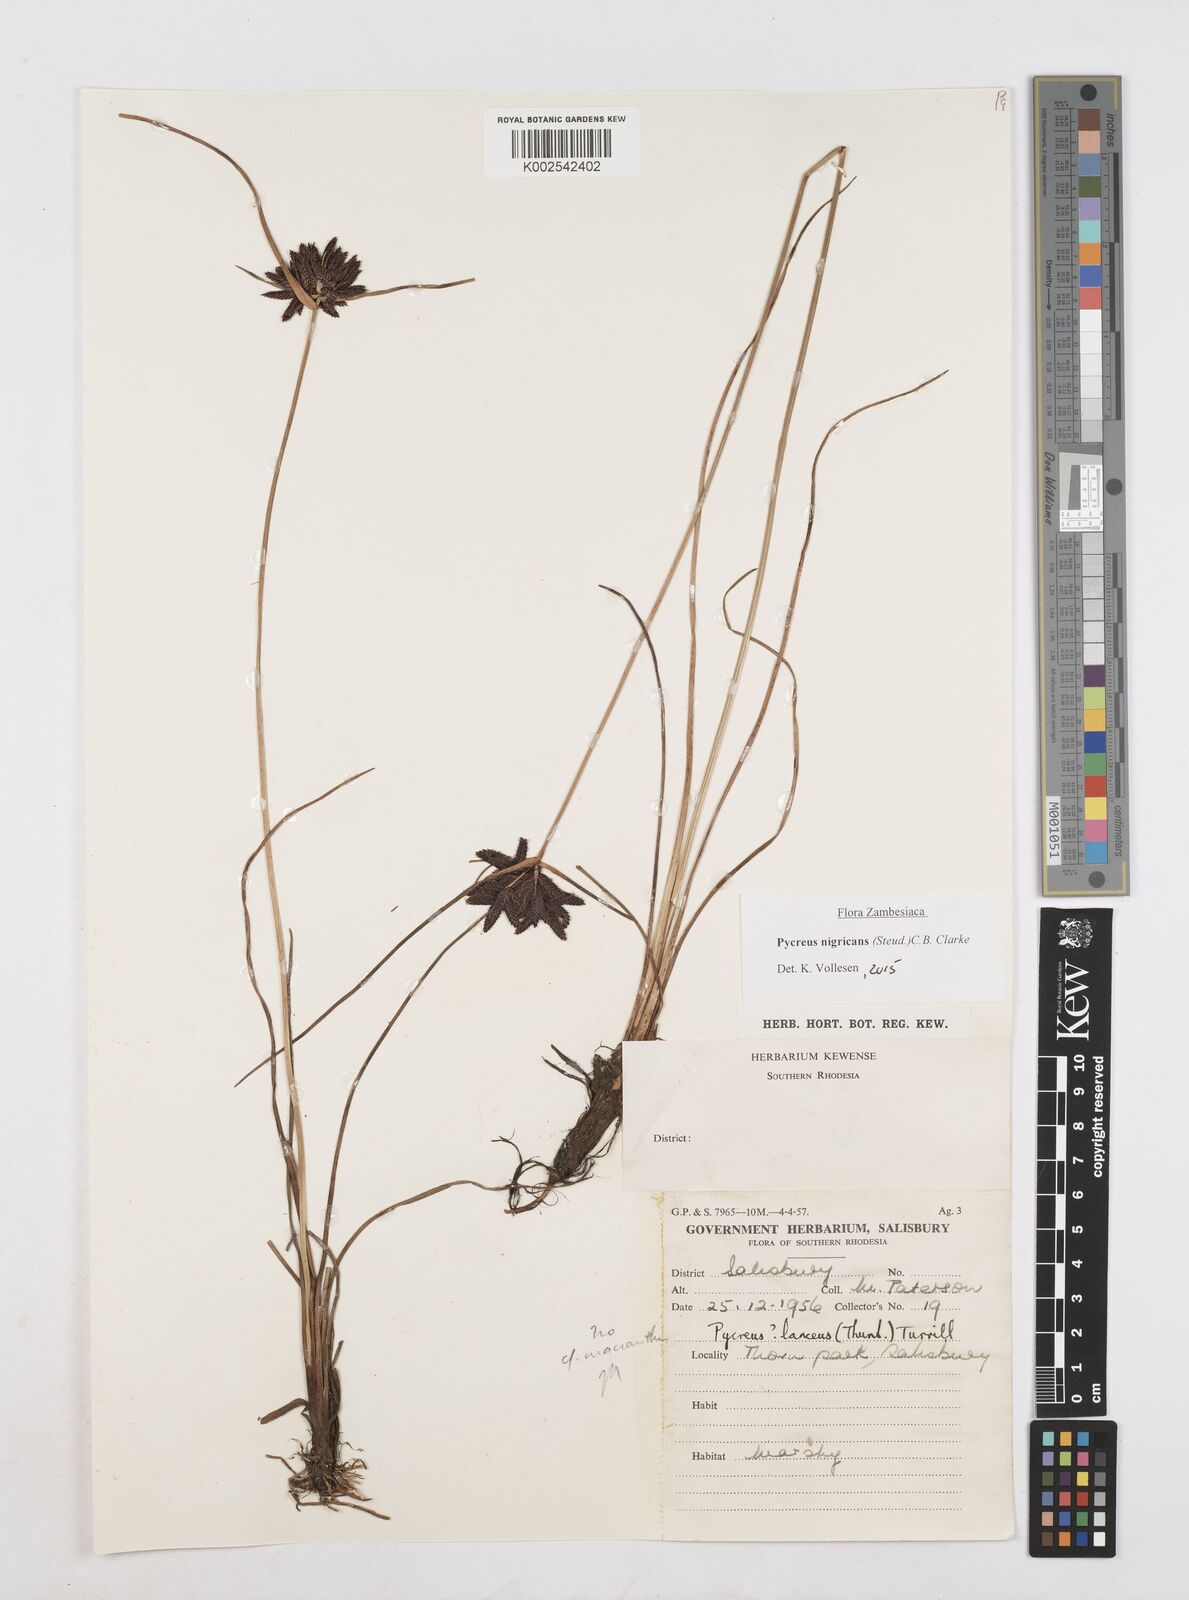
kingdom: Plantae
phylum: Tracheophyta
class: Liliopsida
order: Poales
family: Cyperaceae
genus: Cyperus
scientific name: Cyperus nigricans
